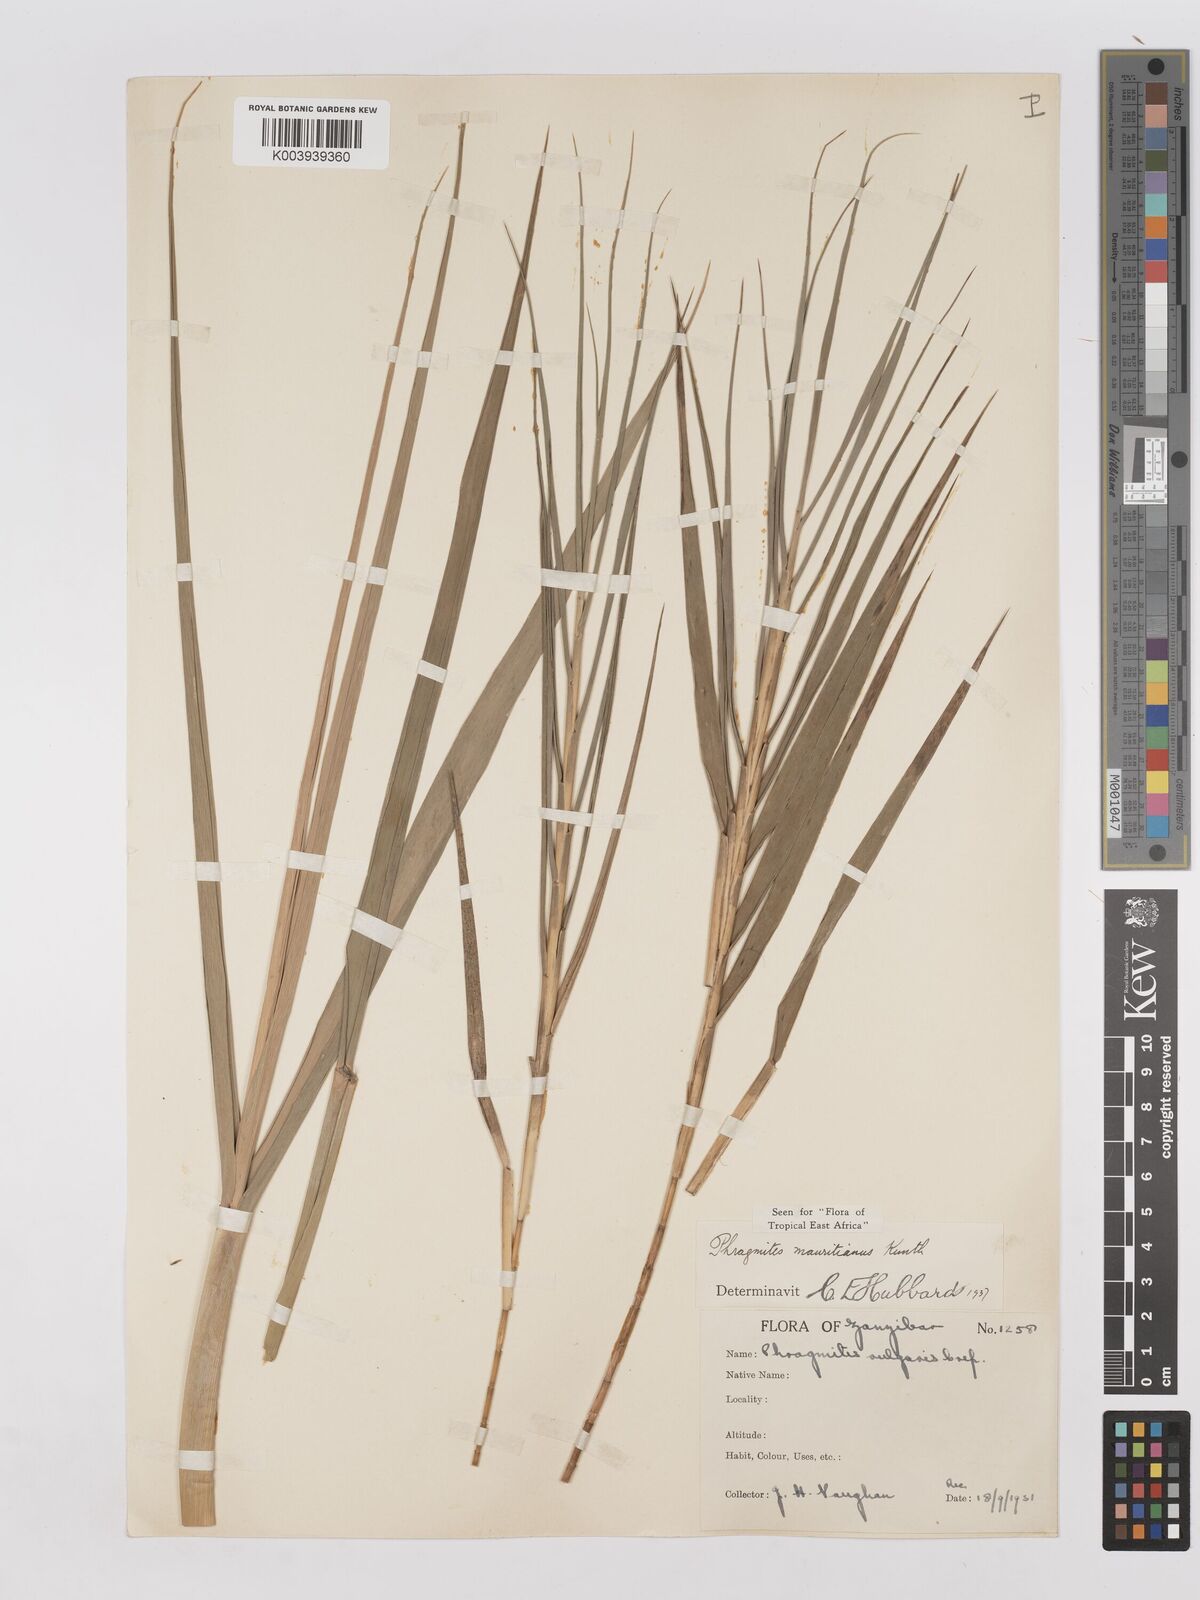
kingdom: Plantae
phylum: Tracheophyta
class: Liliopsida
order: Poales
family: Poaceae
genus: Phragmites
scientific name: Phragmites mauritianus
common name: Reed grass
